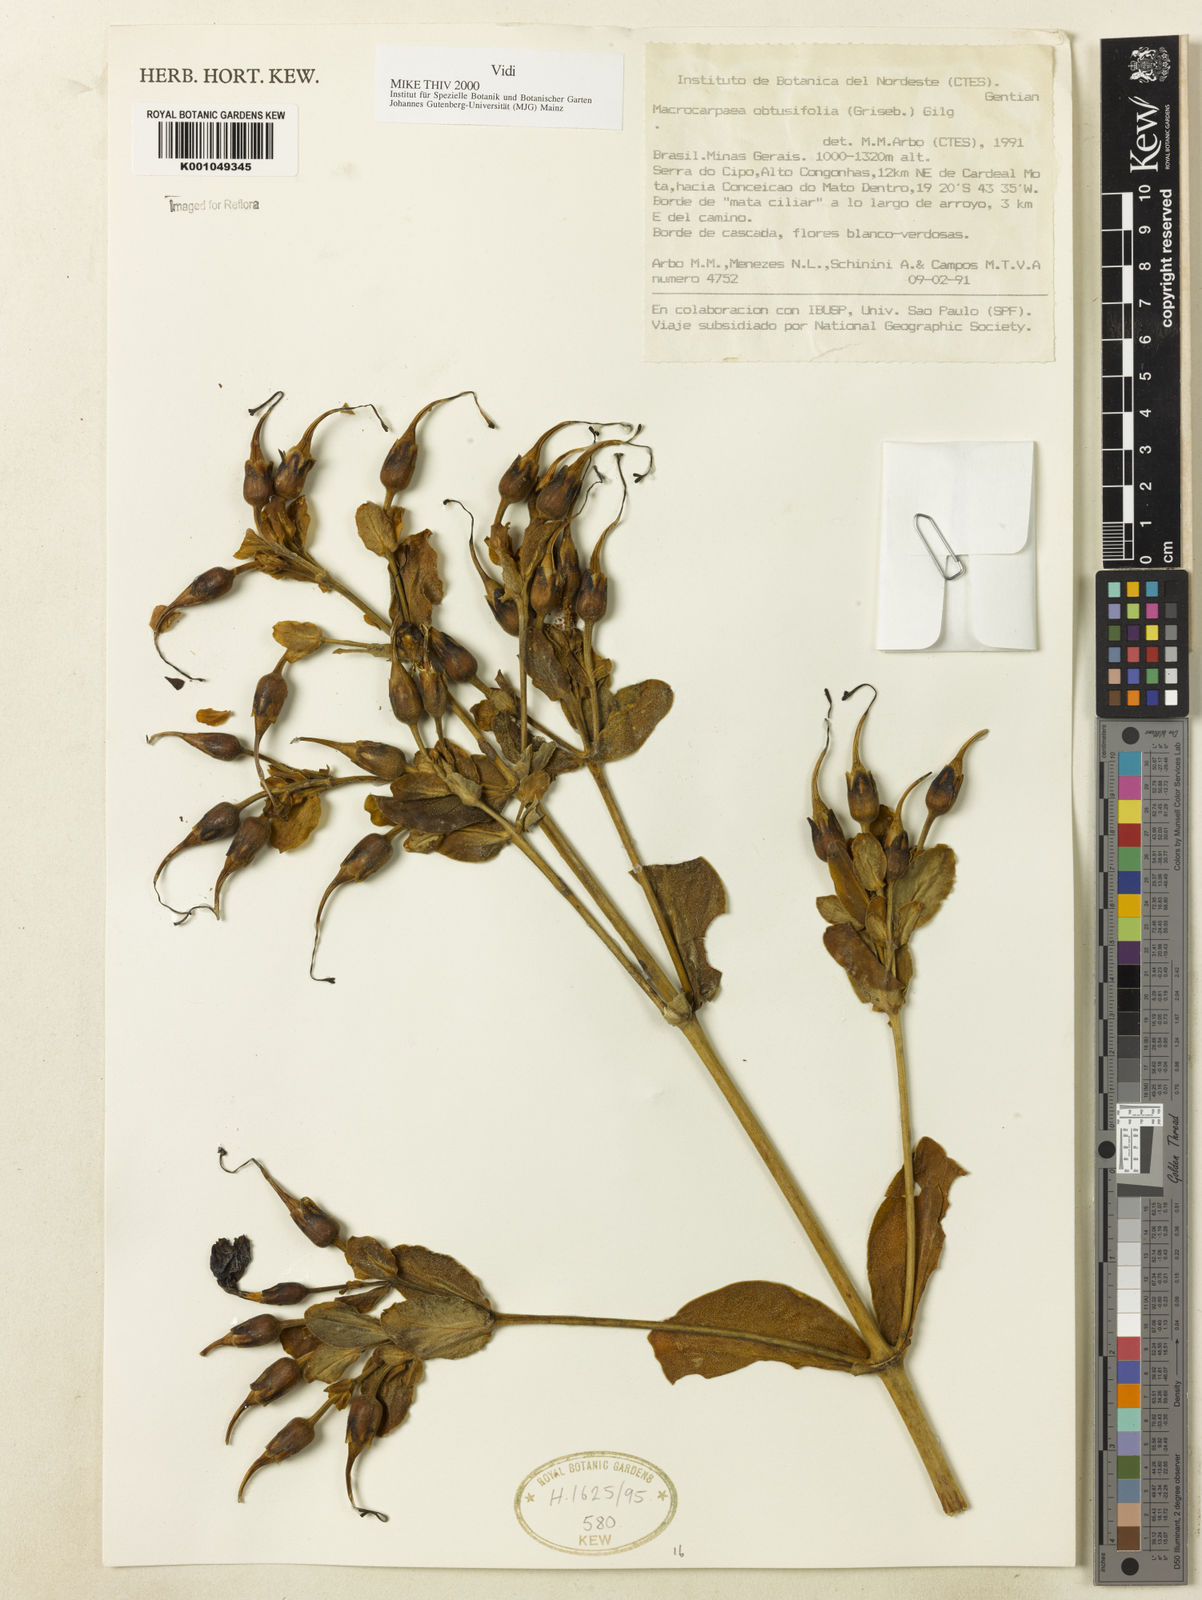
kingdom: Plantae
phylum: Tracheophyta
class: Magnoliopsida
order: Gentianales
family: Gentianaceae
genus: Macrocarpaea
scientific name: Macrocarpaea obtusifolia
